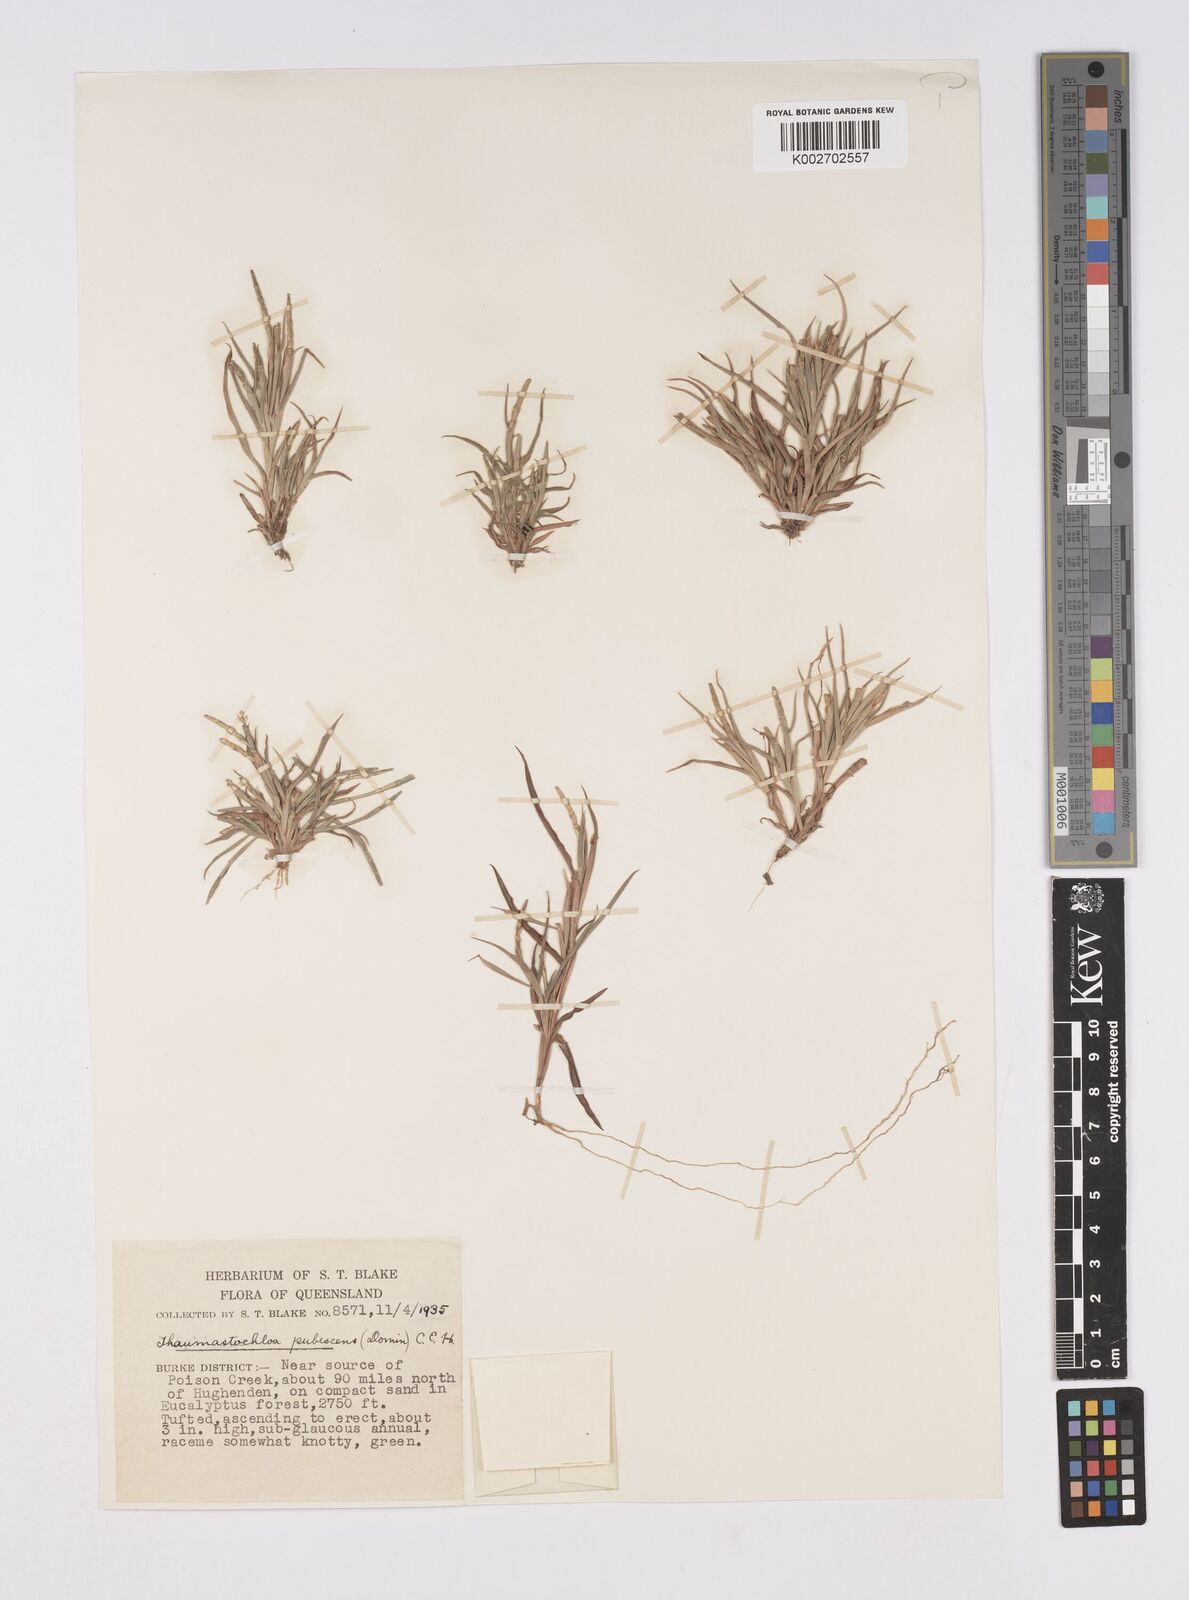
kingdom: Plantae
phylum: Tracheophyta
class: Liliopsida
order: Poales
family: Poaceae
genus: Thaumastochloa
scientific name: Thaumastochloa pubescens
